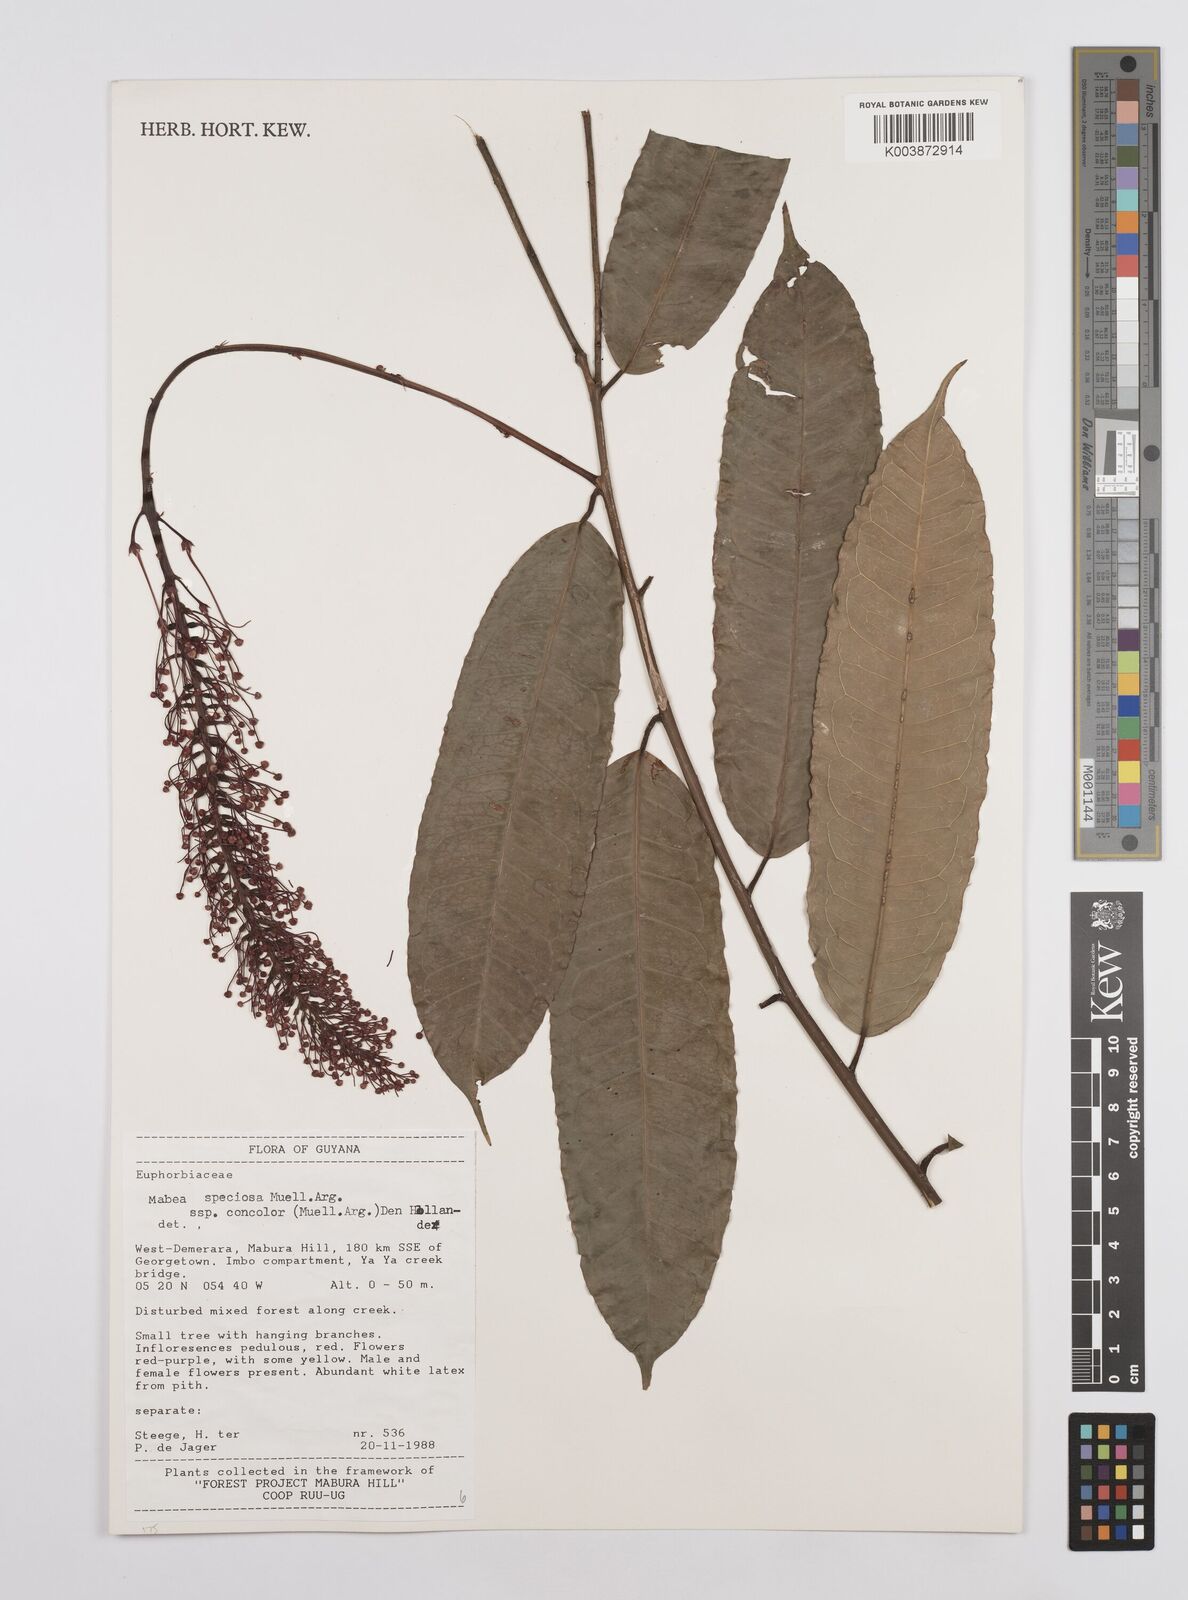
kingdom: Plantae
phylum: Tracheophyta
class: Magnoliopsida
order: Malpighiales
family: Euphorbiaceae
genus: Mabea
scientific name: Mabea piriri
